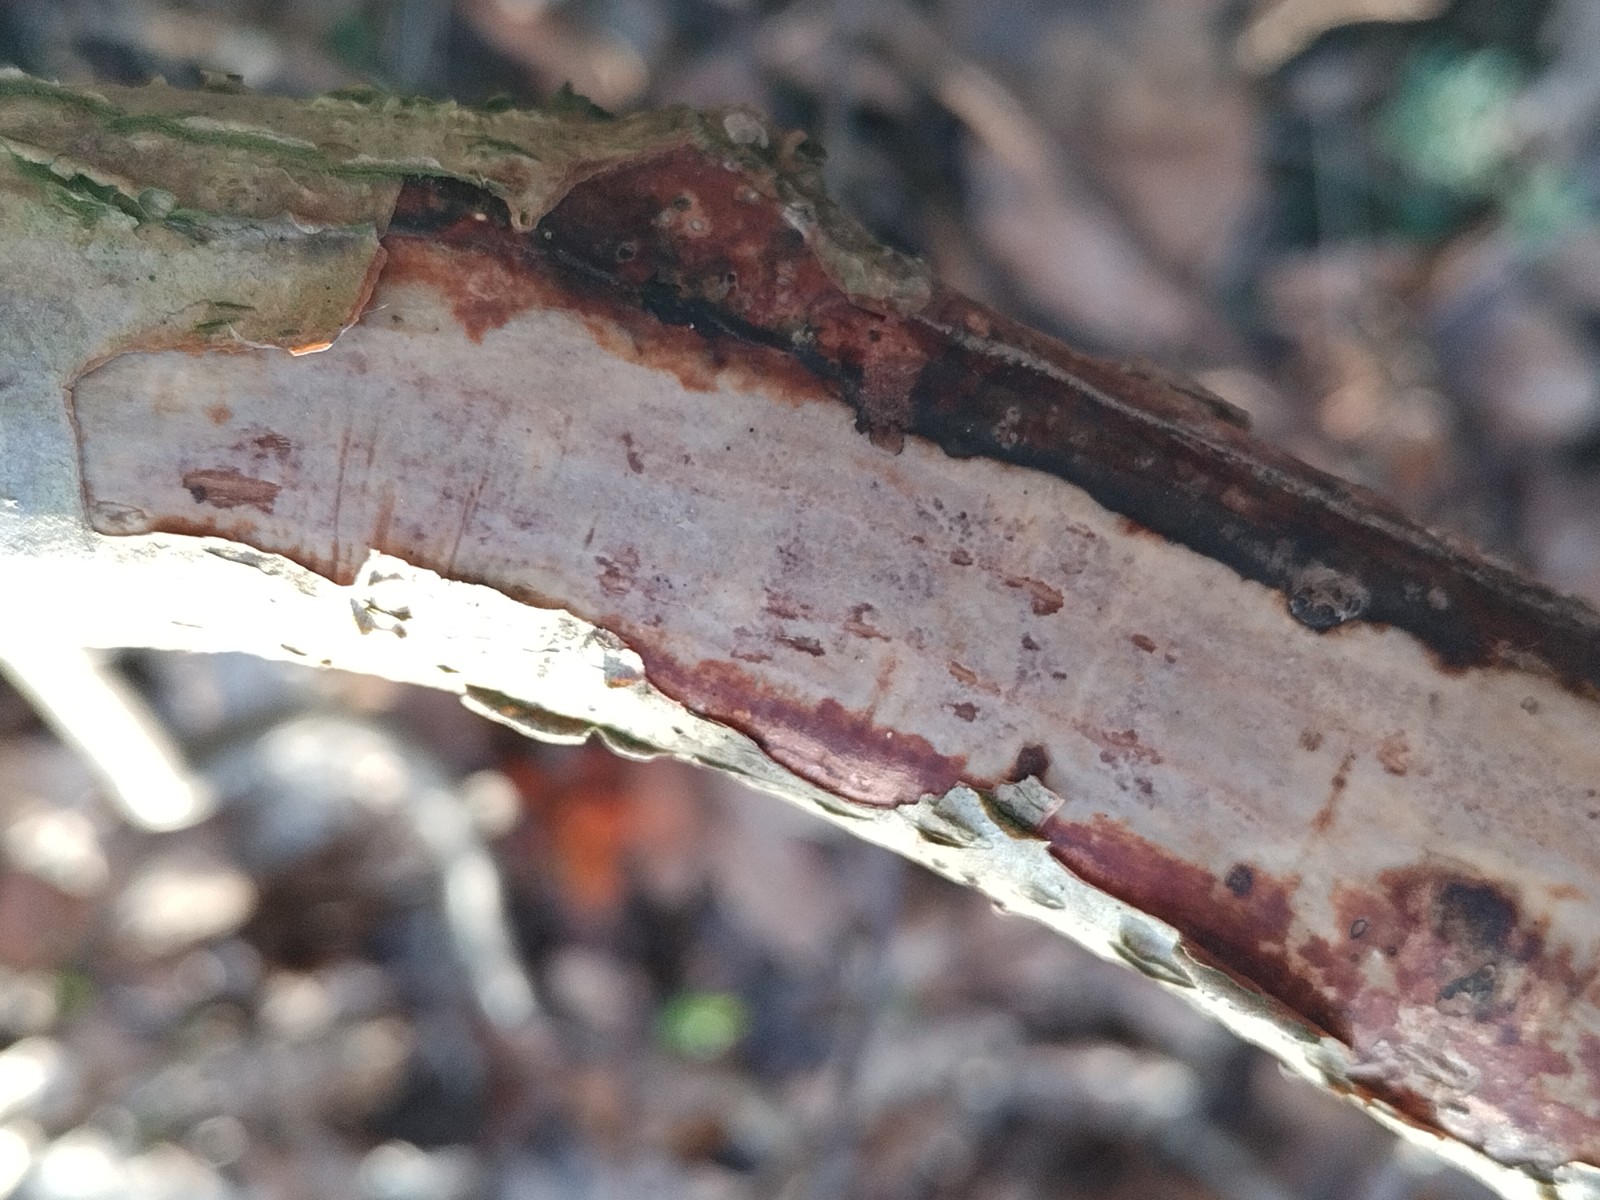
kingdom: Fungi
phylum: Basidiomycota
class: Agaricomycetes
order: Corticiales
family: Vuilleminiaceae
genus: Vuilleminia
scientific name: Vuilleminia comedens
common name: almindelig barksprænger
